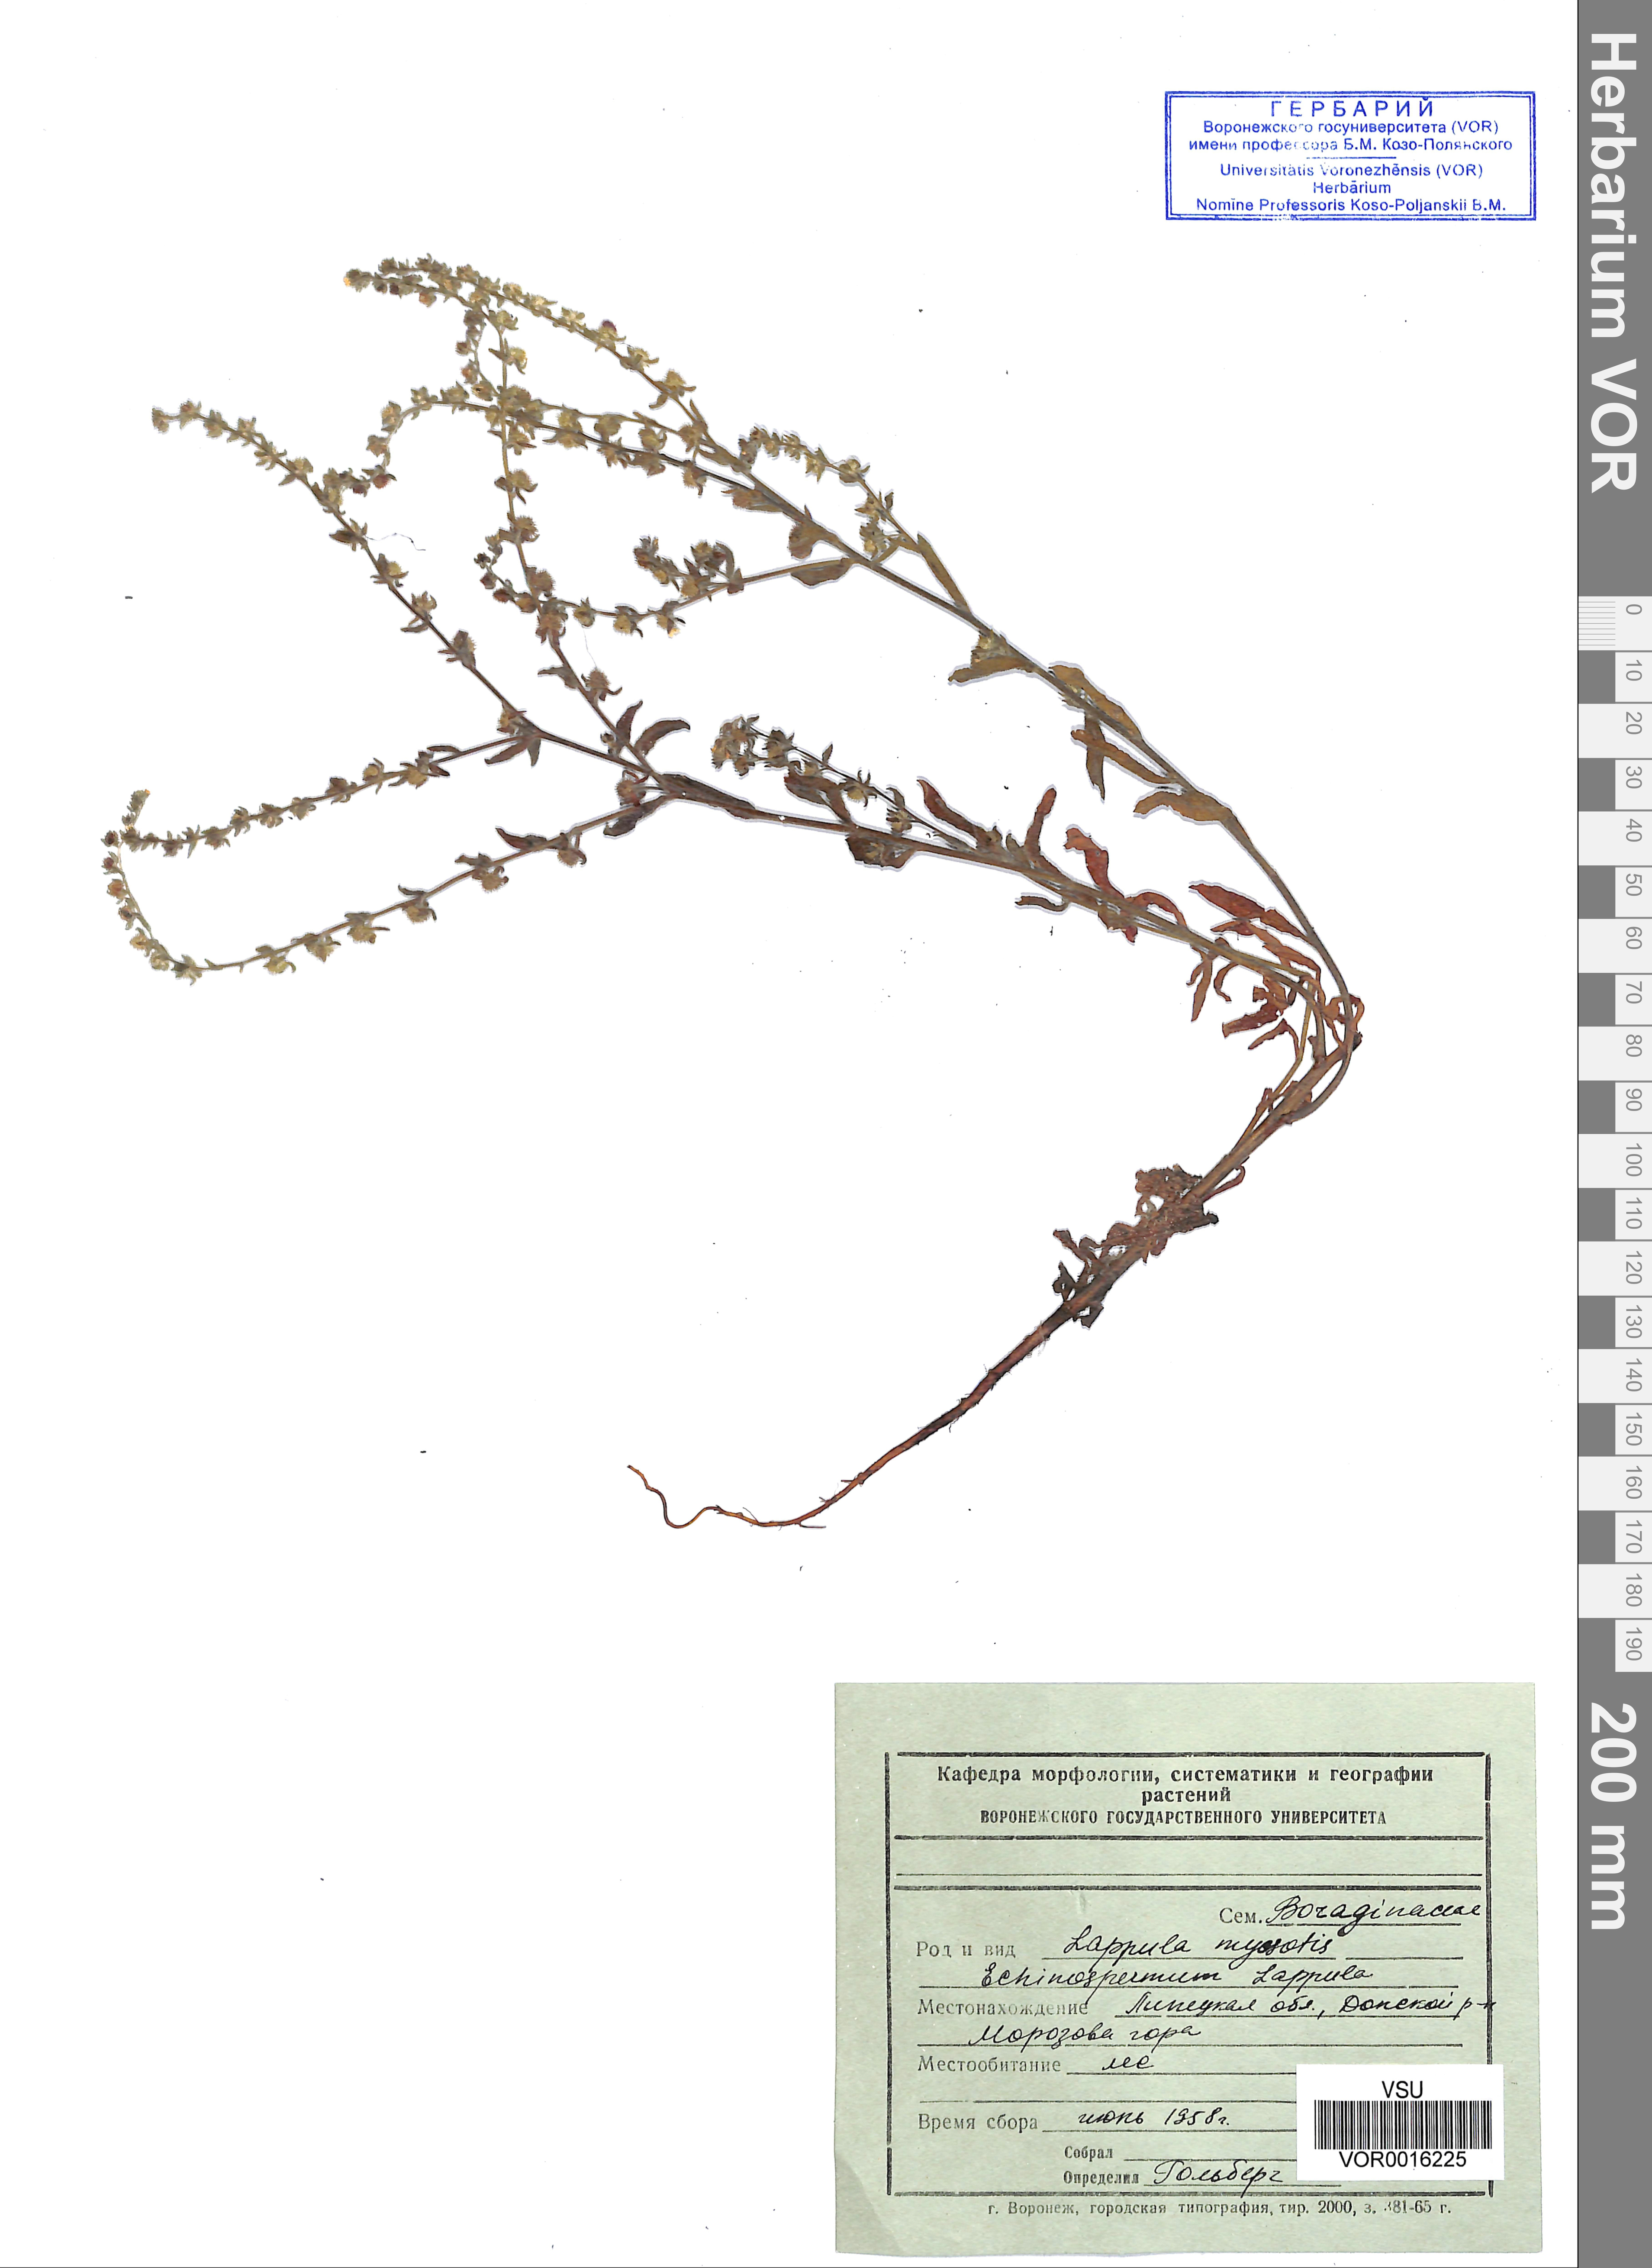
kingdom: Plantae
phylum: Tracheophyta
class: Magnoliopsida
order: Boraginales
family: Boraginaceae
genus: Lappula
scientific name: Lappula squarrosa
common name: European stickseed
